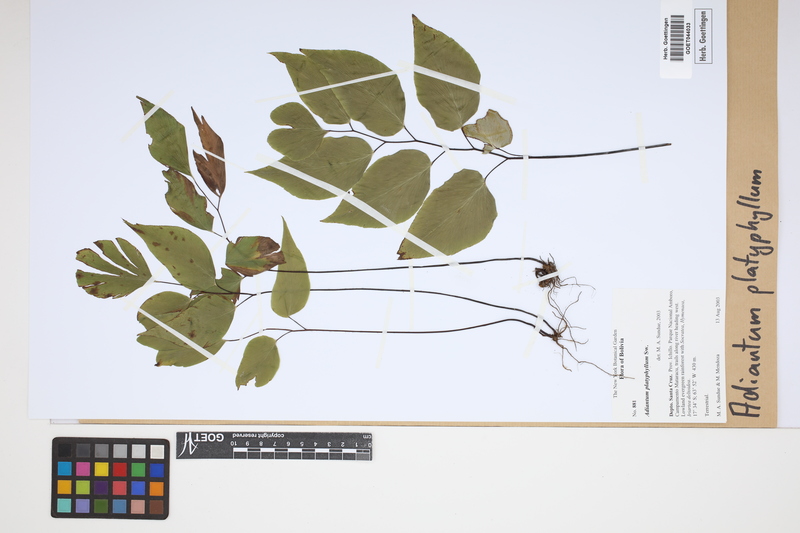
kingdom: Plantae
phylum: Tracheophyta
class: Polypodiopsida
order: Polypodiales
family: Pteridaceae
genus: Adiantum
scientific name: Adiantum platyphyllum
